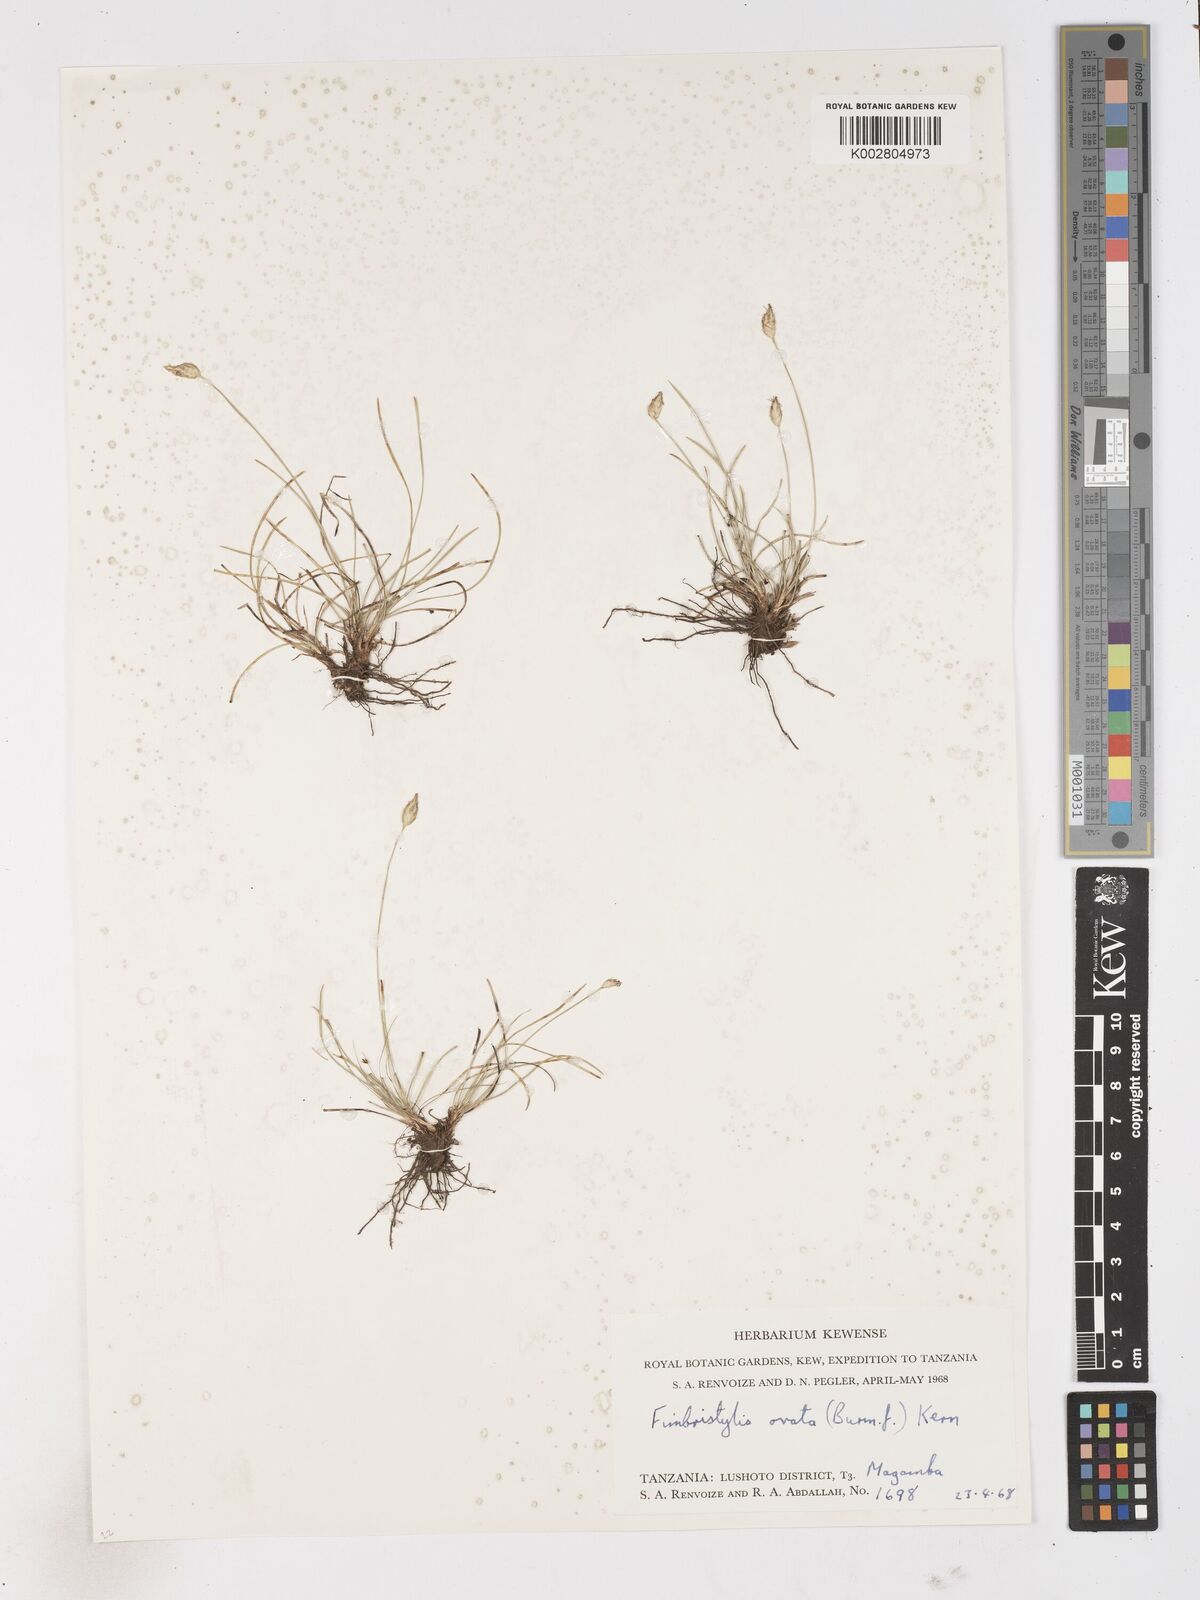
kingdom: Plantae
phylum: Tracheophyta
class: Liliopsida
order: Poales
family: Cyperaceae
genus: Abildgaardia
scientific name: Abildgaardia ovata
